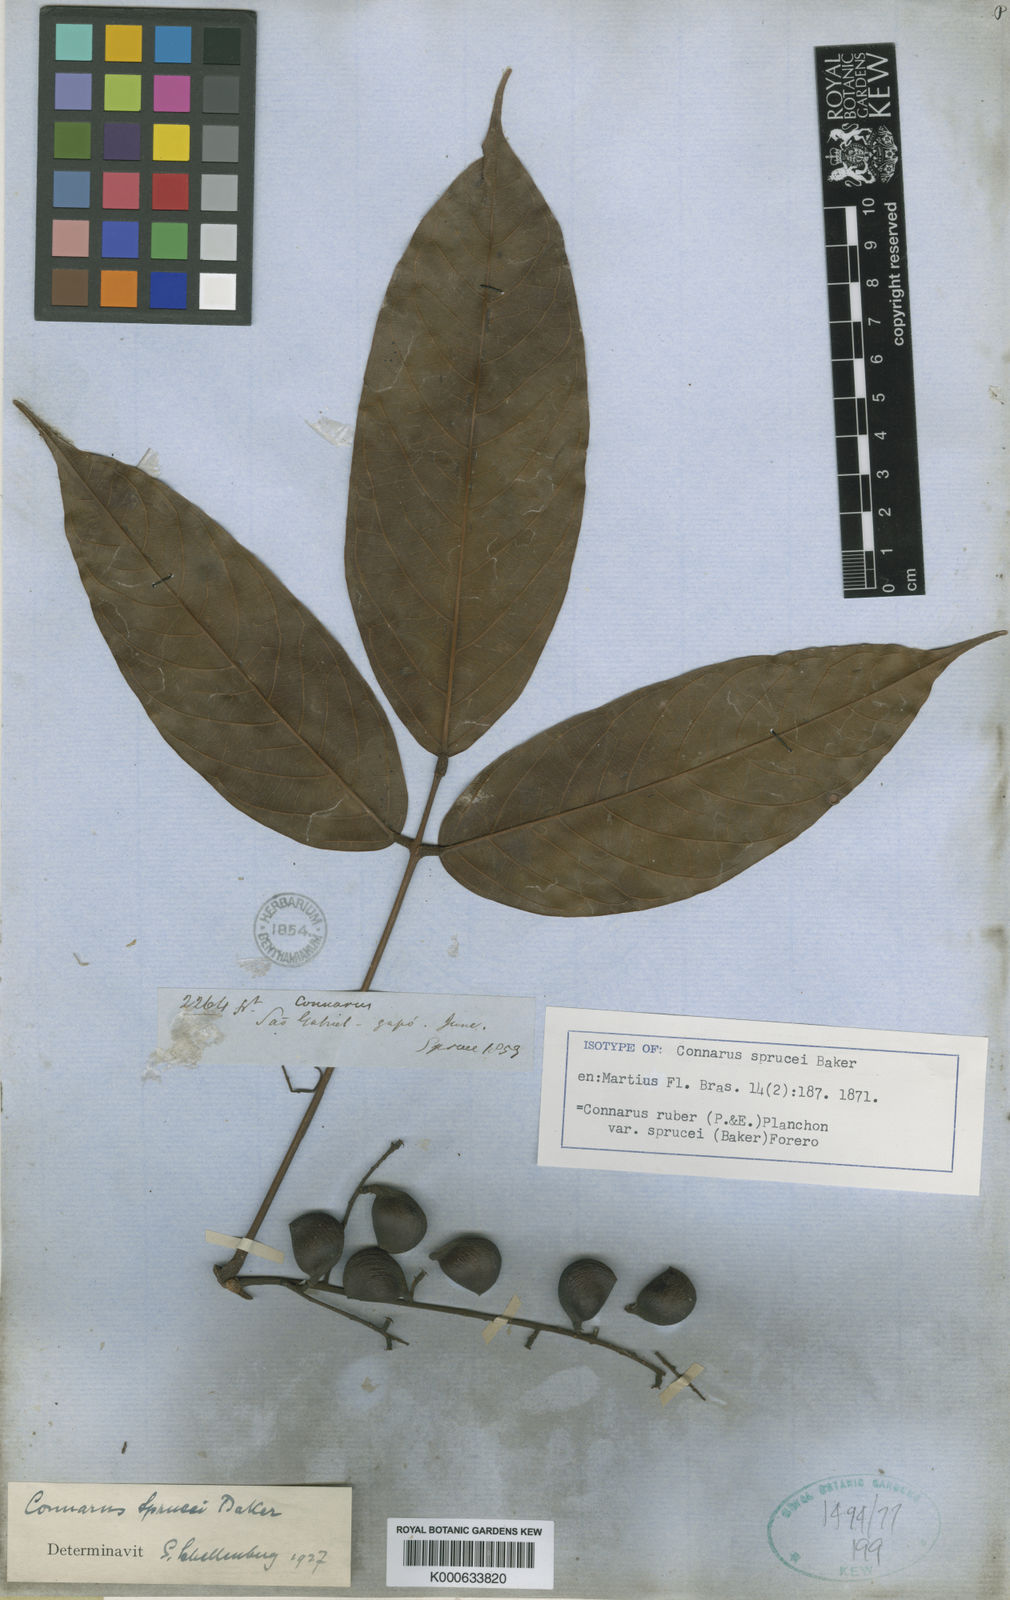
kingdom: Plantae
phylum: Tracheophyta
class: Magnoliopsida
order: Oxalidales
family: Connaraceae
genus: Connarus
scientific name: Connarus ruber
